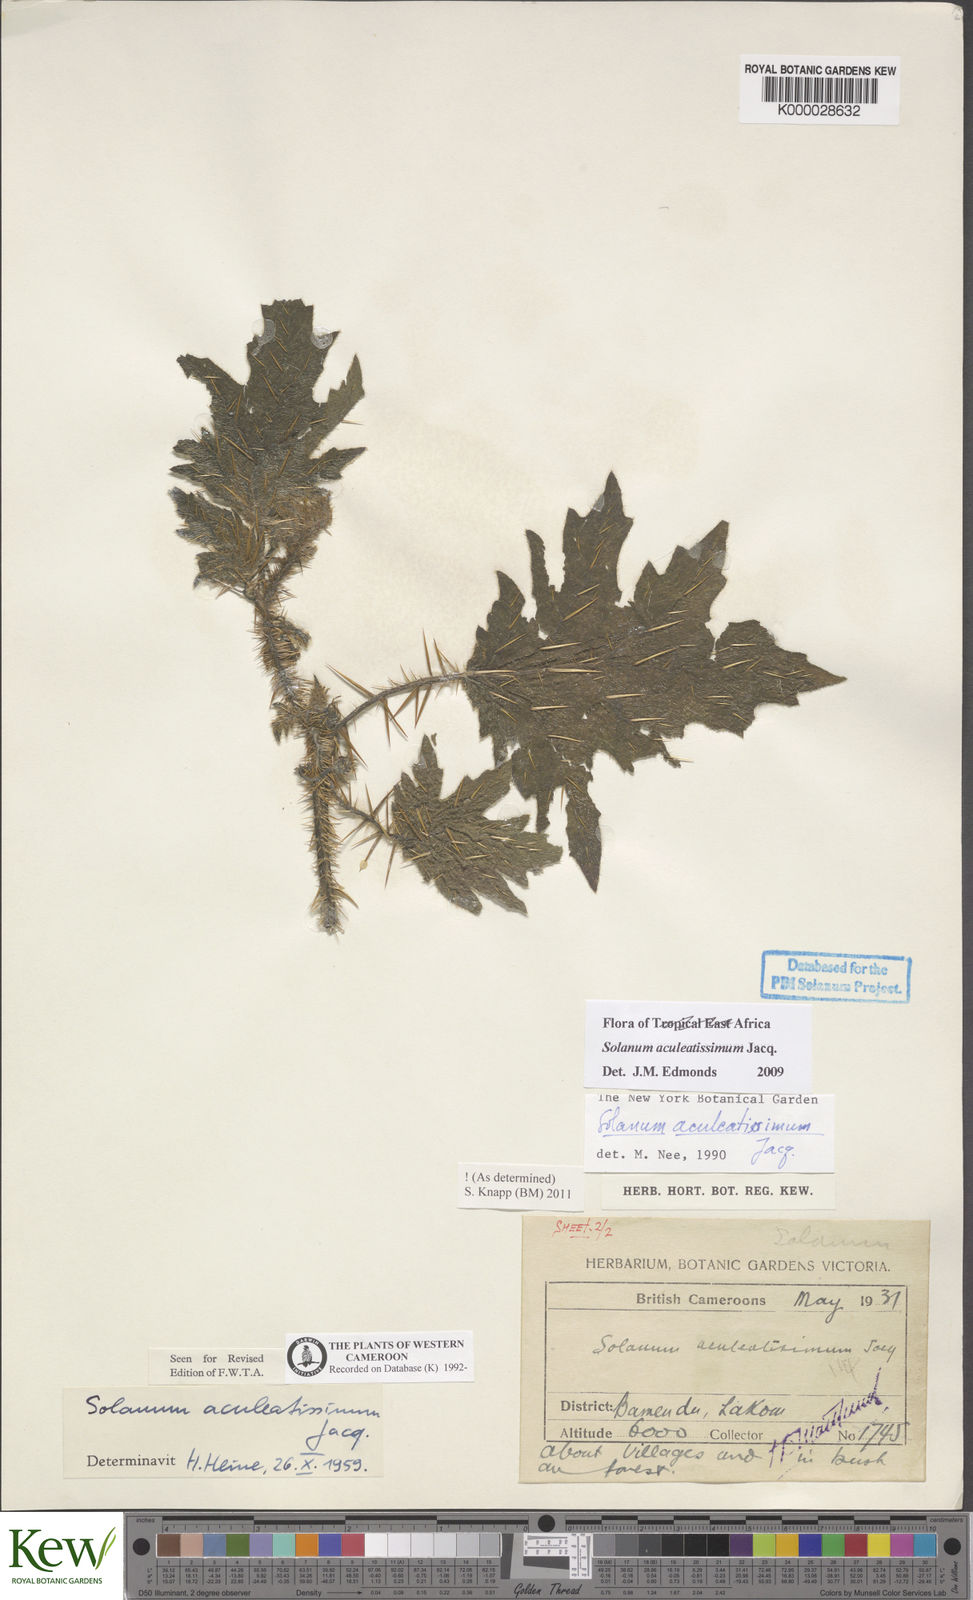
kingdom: Plantae
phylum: Tracheophyta
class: Magnoliopsida
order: Solanales
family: Solanaceae
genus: Solanum
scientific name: Solanum aculeatissimum
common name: Dutch eggplant
